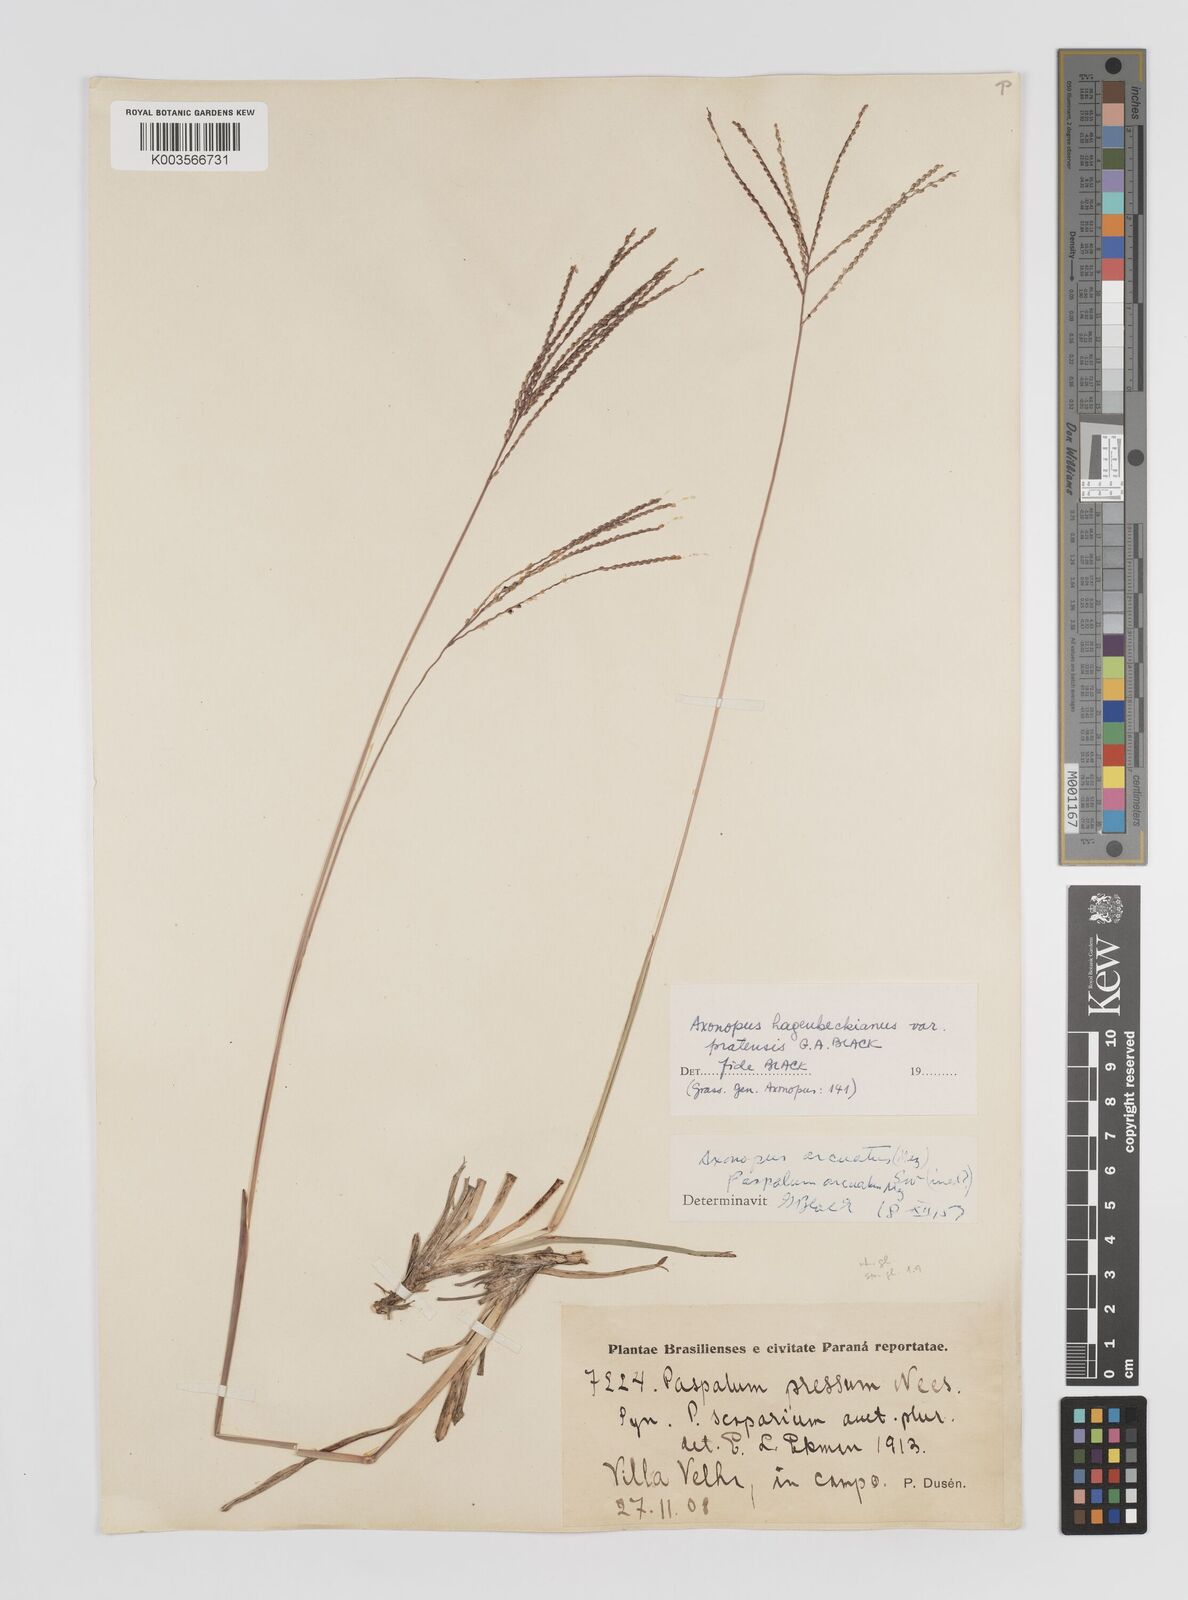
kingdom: Plantae
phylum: Tracheophyta
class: Liliopsida
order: Poales
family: Poaceae
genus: Axonopus
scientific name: Axonopus suffultus
